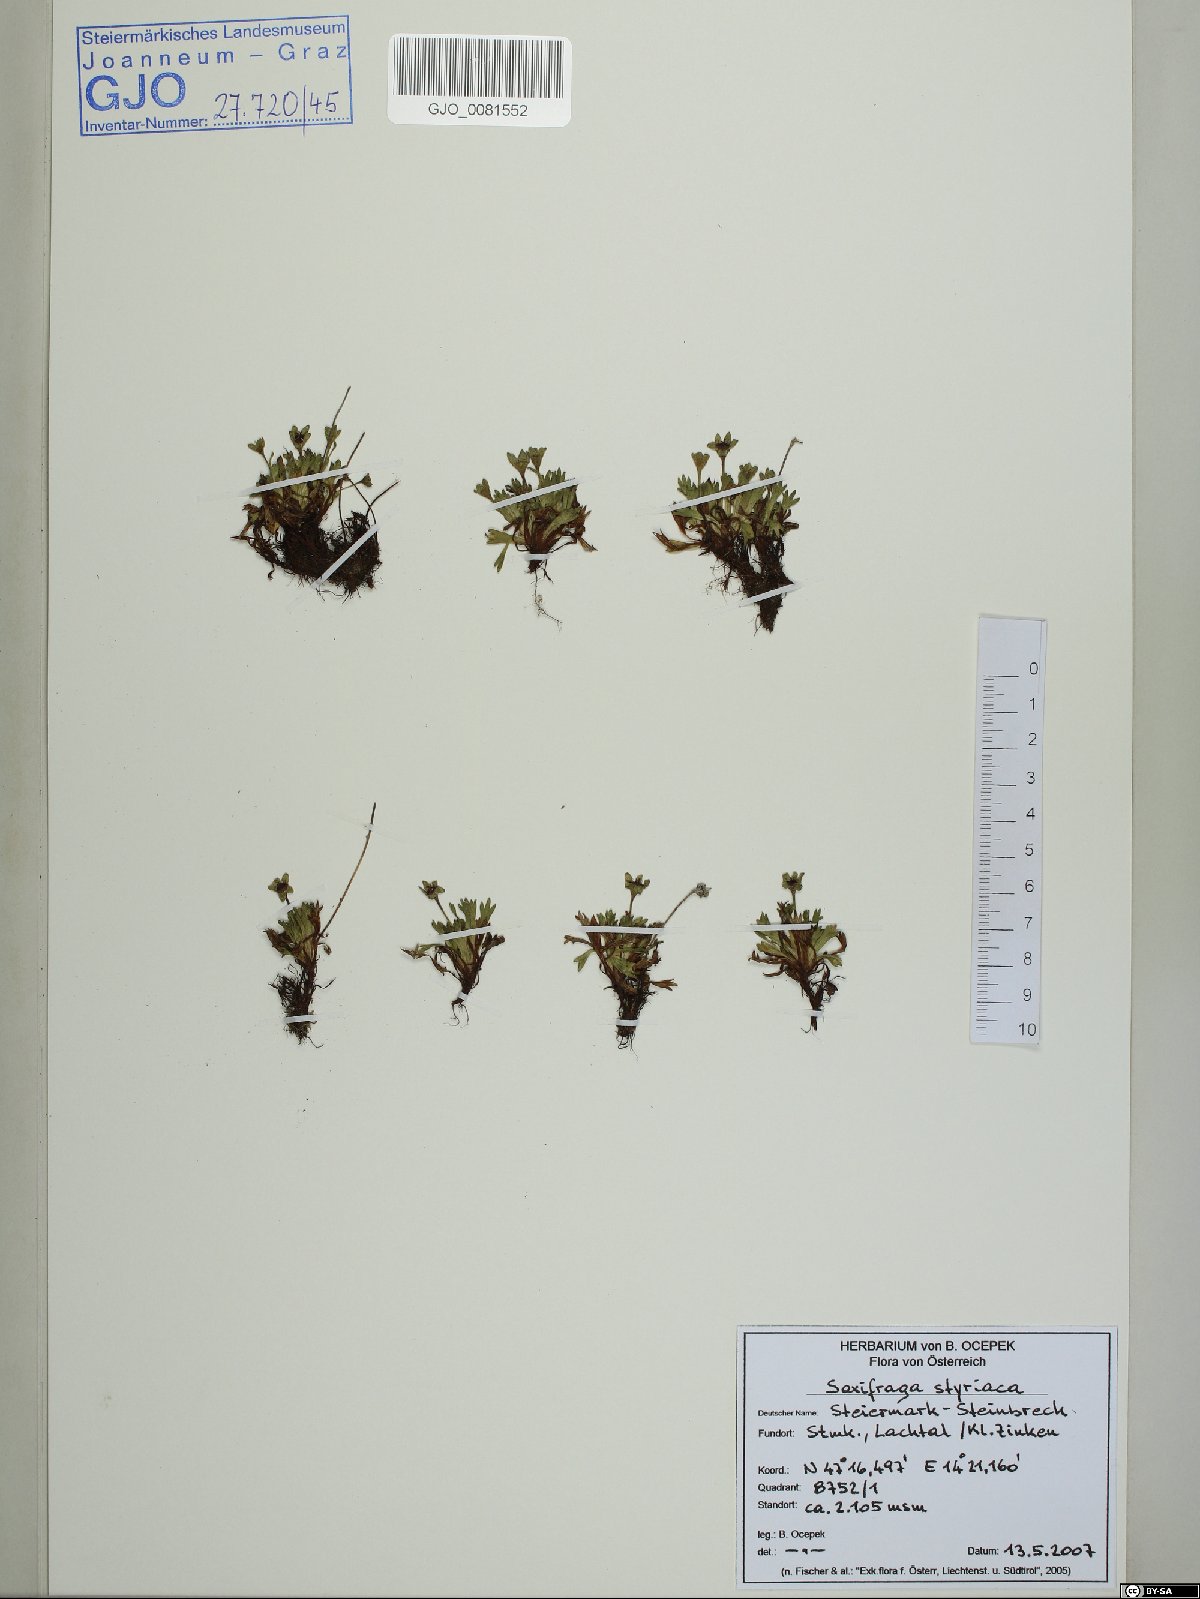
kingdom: Plantae
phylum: Tracheophyta
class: Magnoliopsida
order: Saxifragales
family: Saxifragaceae
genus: Saxifraga
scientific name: Saxifraga styriaca
